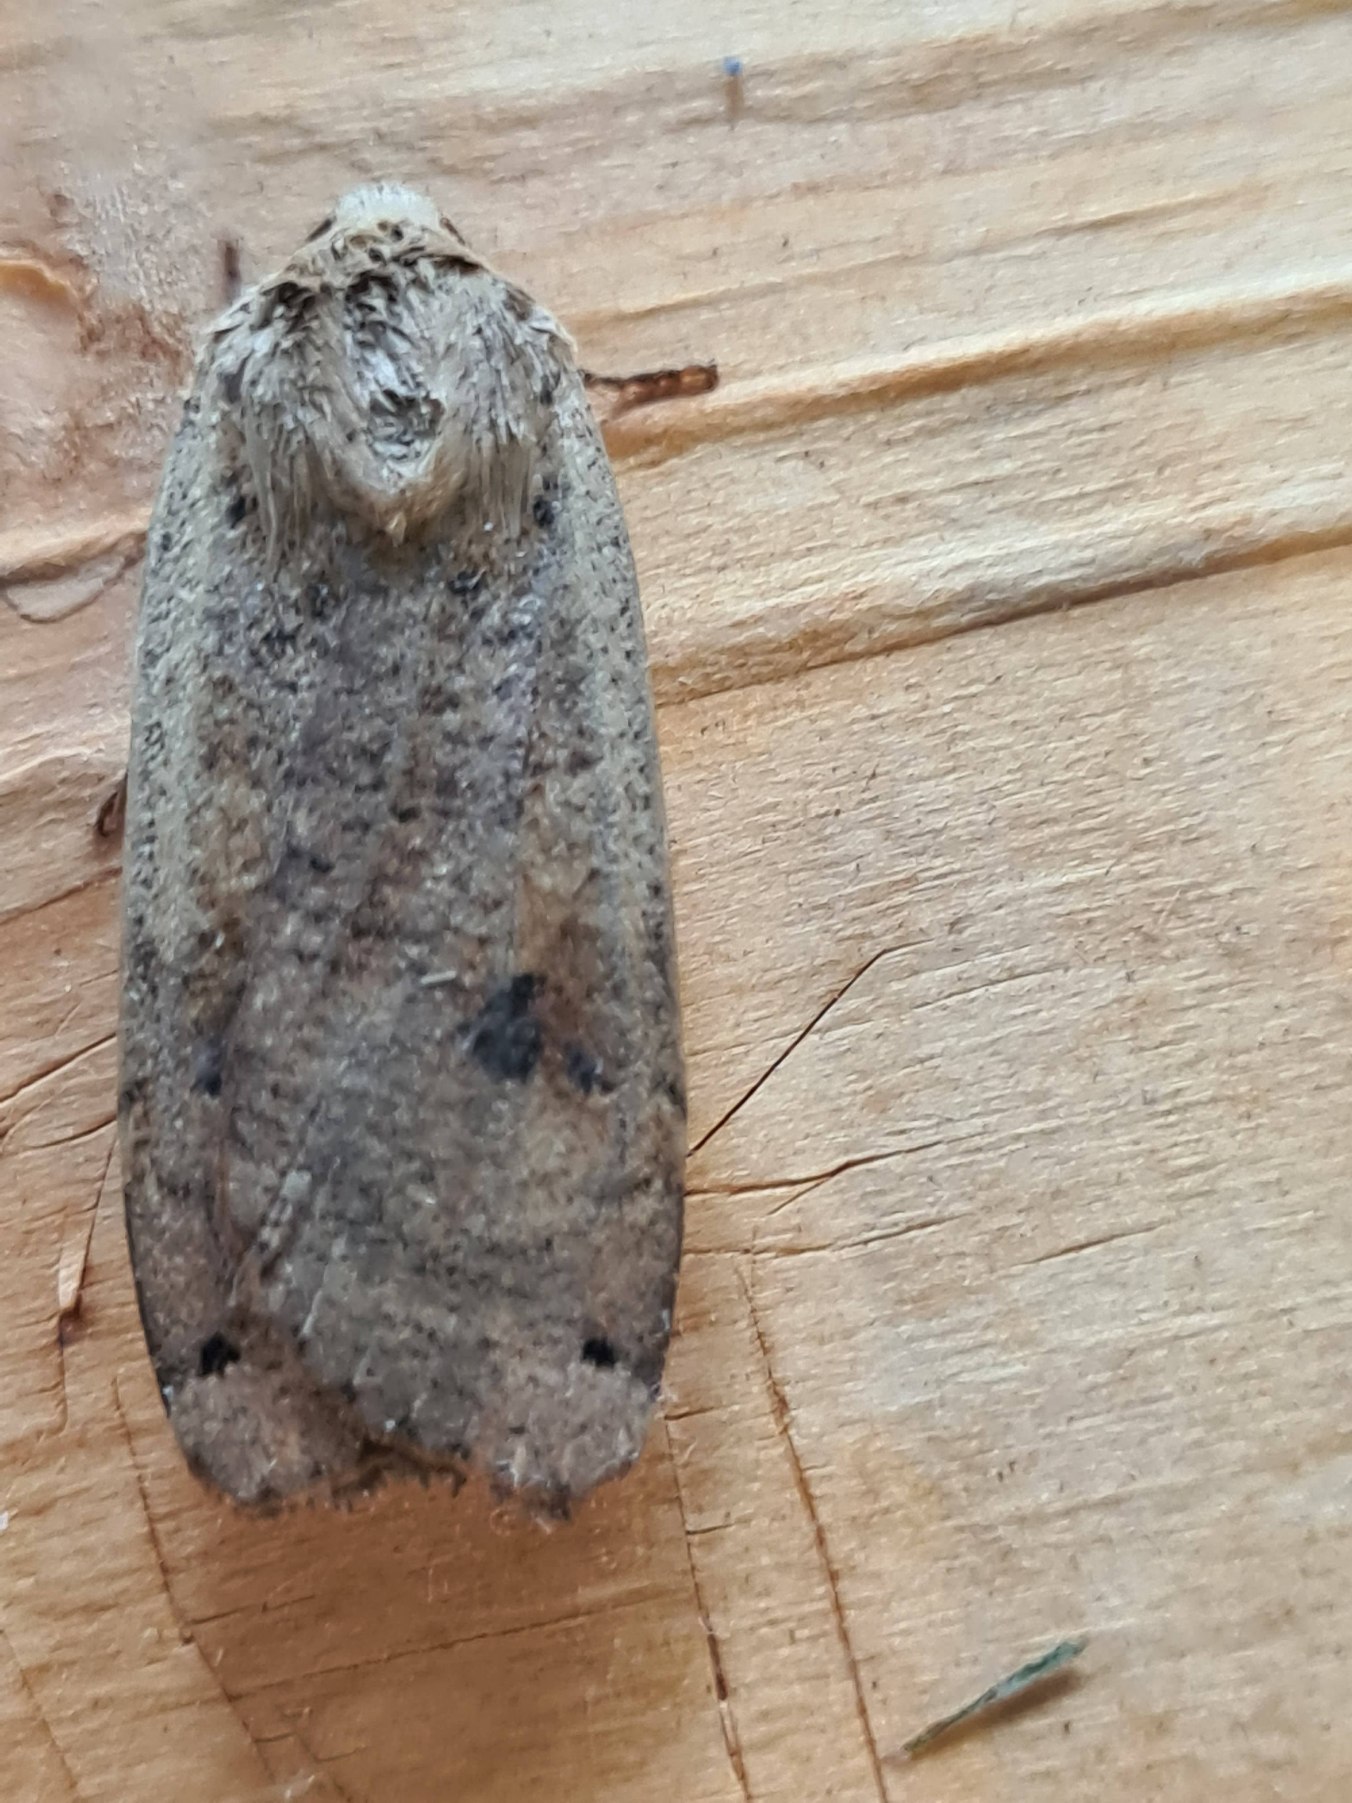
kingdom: Animalia
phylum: Arthropoda
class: Insecta
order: Lepidoptera
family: Noctuidae
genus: Noctua
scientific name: Noctua pronuba
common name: Stor smutugle
